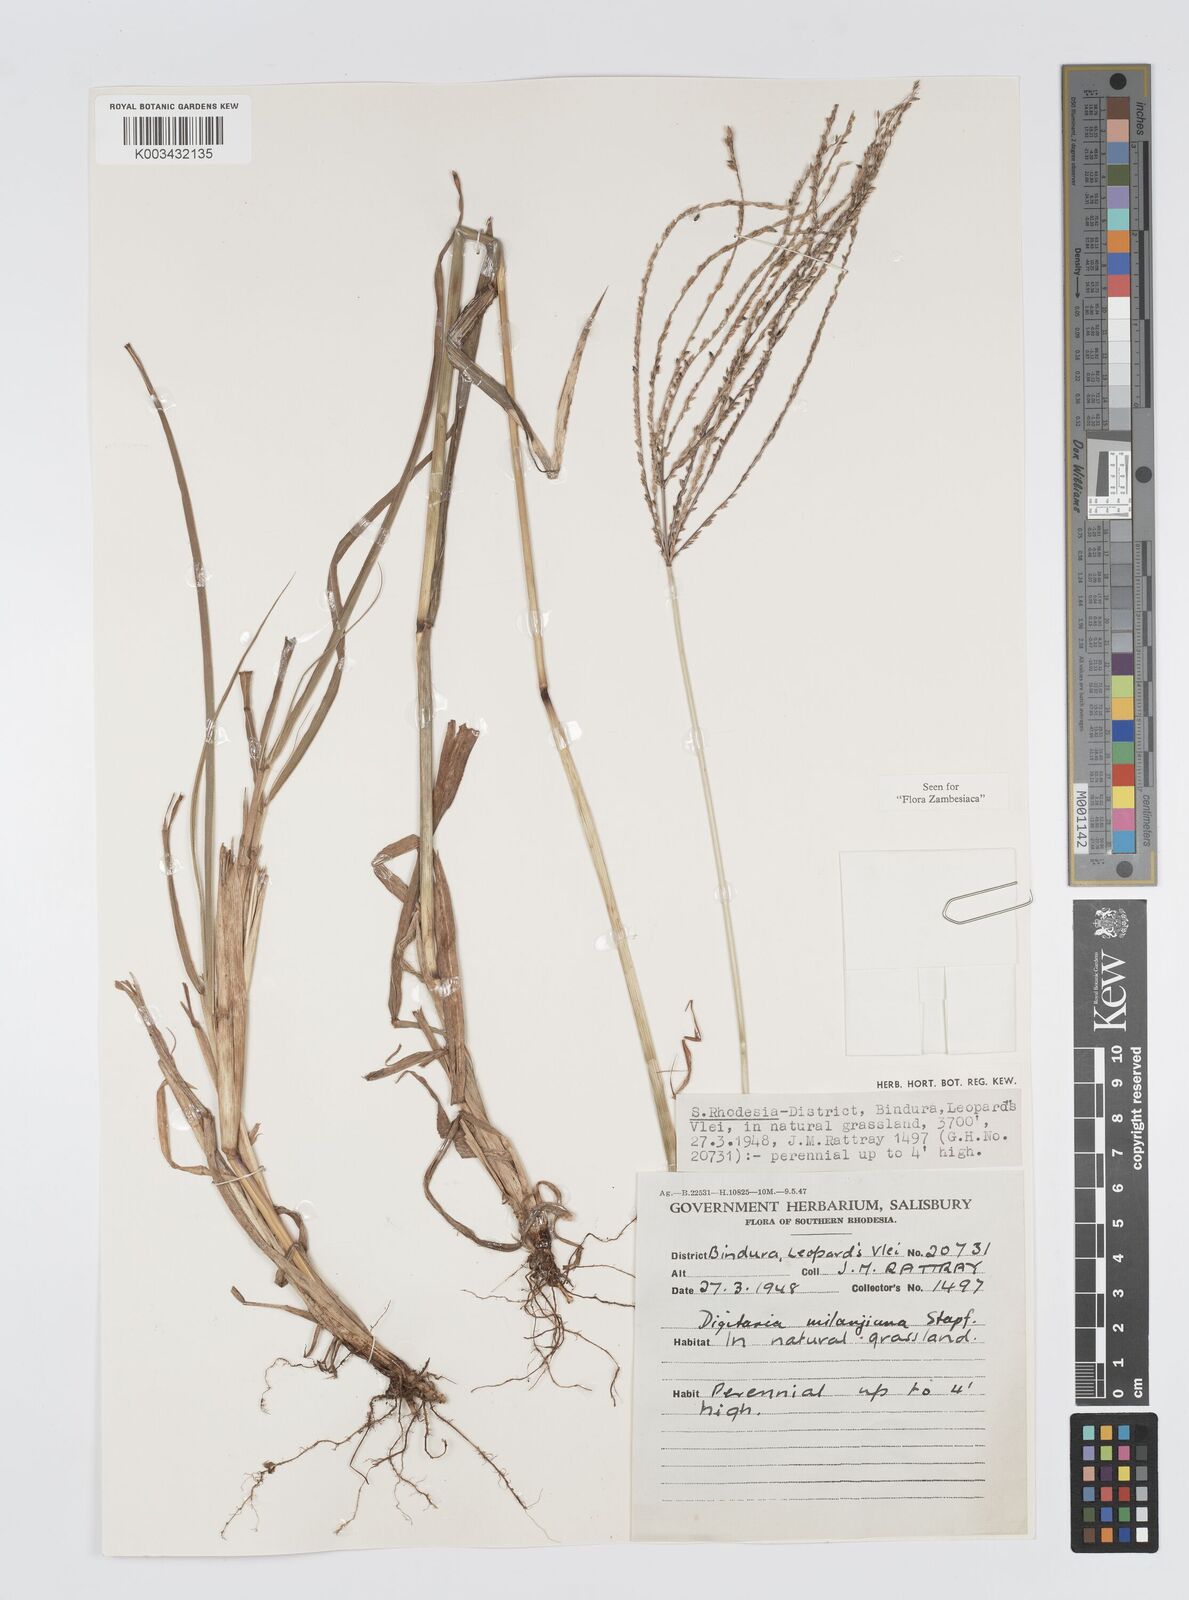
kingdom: Plantae
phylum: Tracheophyta
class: Liliopsida
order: Poales
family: Poaceae
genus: Digitaria
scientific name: Digitaria milanjiana
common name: Madagascar crabgrass
